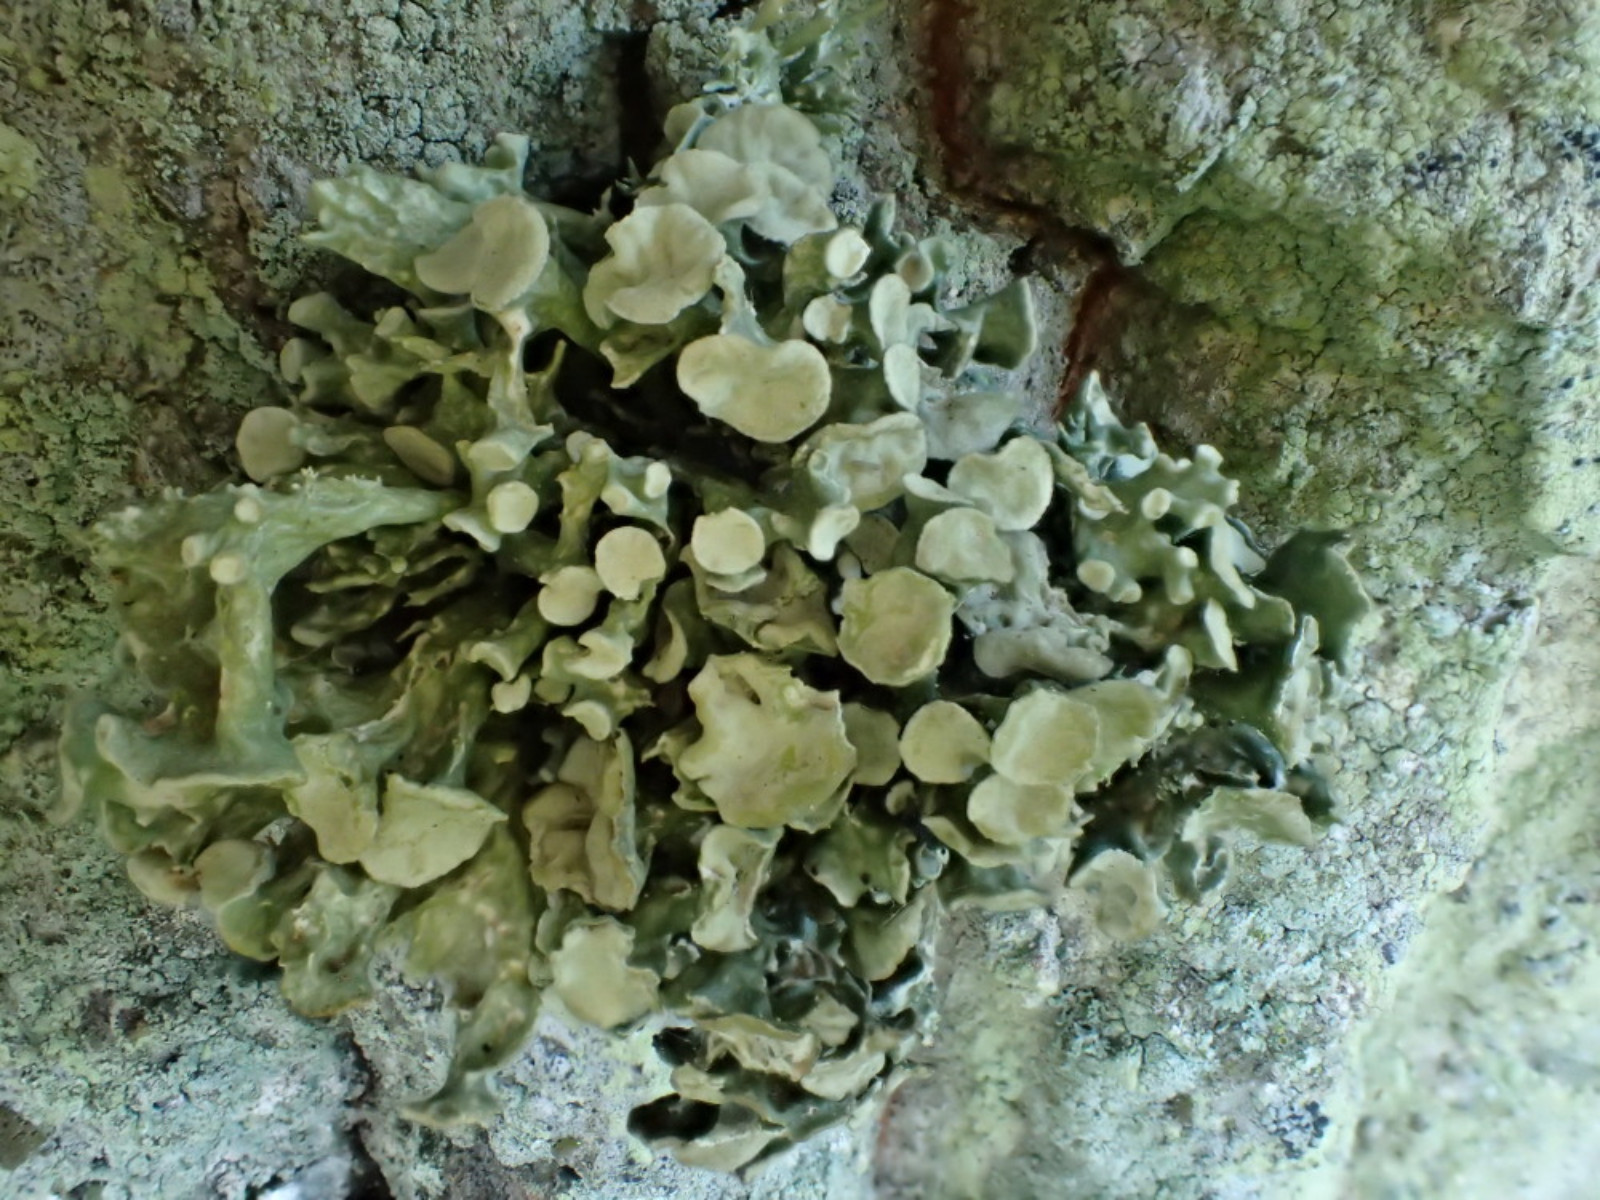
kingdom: Fungi
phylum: Ascomycota
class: Lecanoromycetes
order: Lecanorales
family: Ramalinaceae
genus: Ramalina
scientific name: Ramalina fastigiata
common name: tue-grenlav
